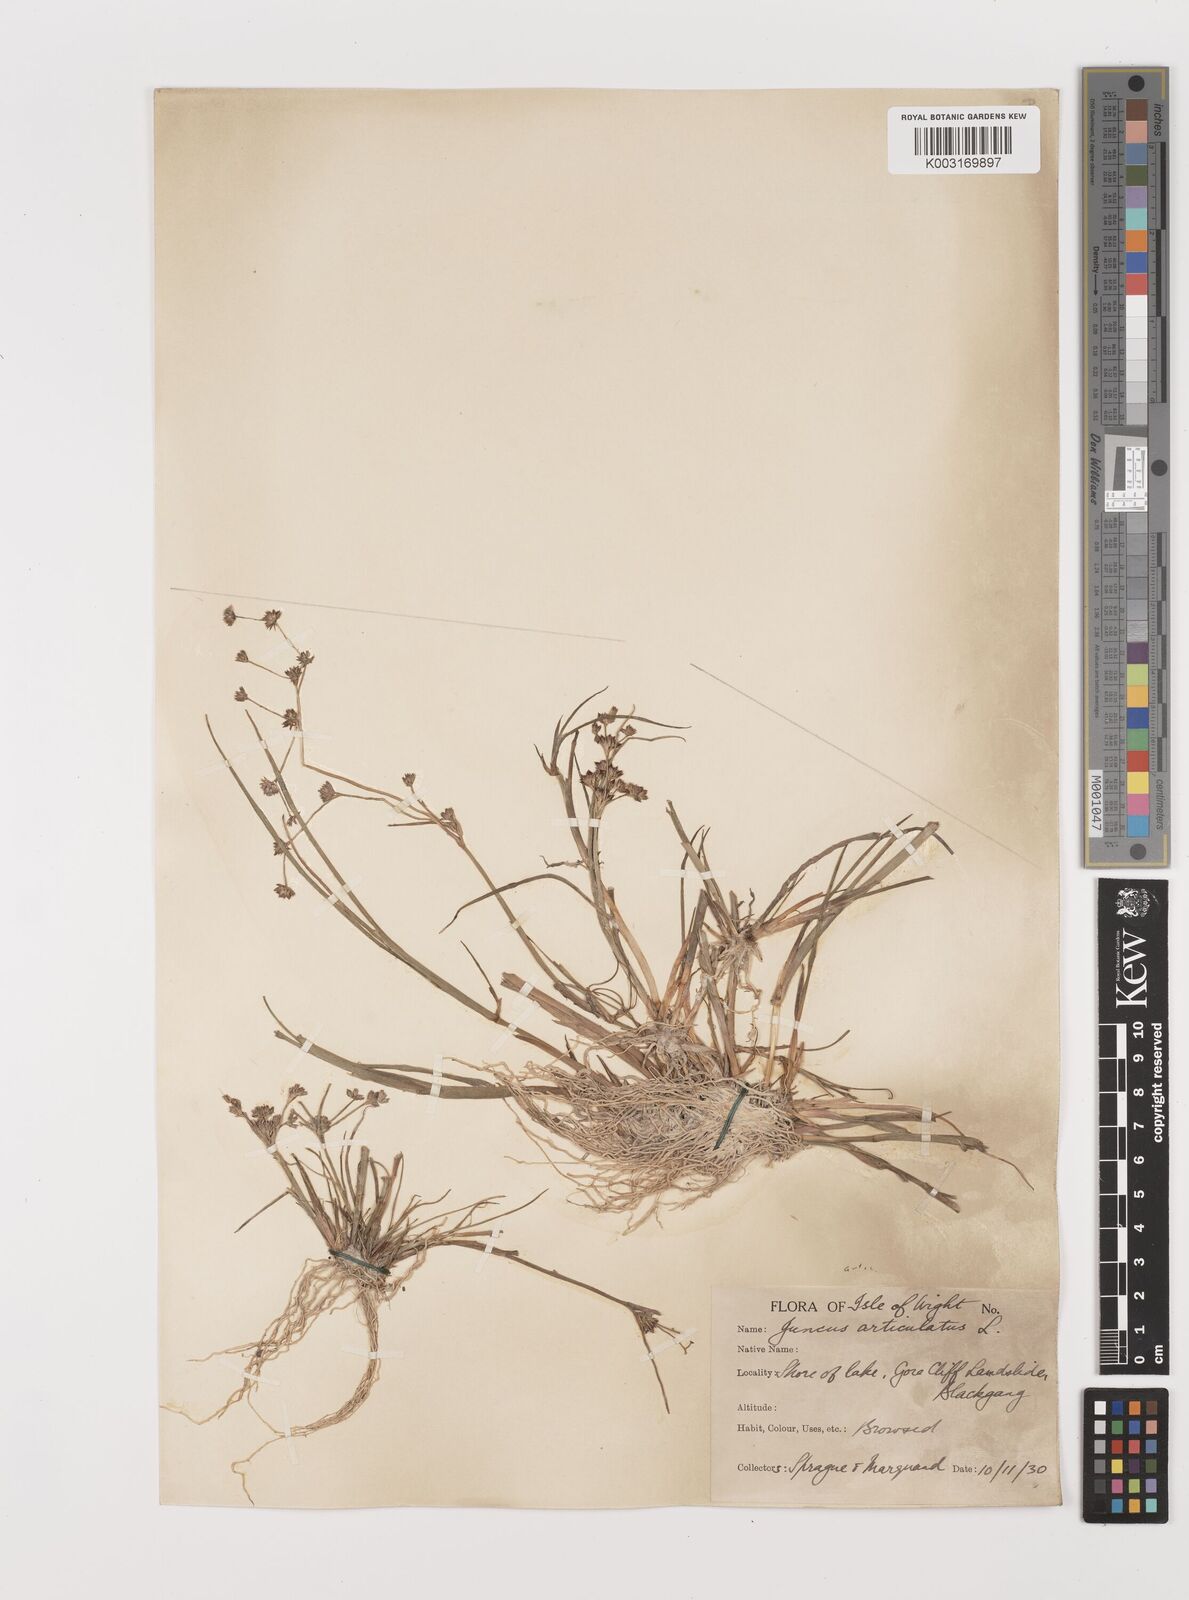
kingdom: Plantae
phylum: Tracheophyta
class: Liliopsida
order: Poales
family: Juncaceae
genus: Juncus
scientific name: Juncus articulatus
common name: Jointed rush
